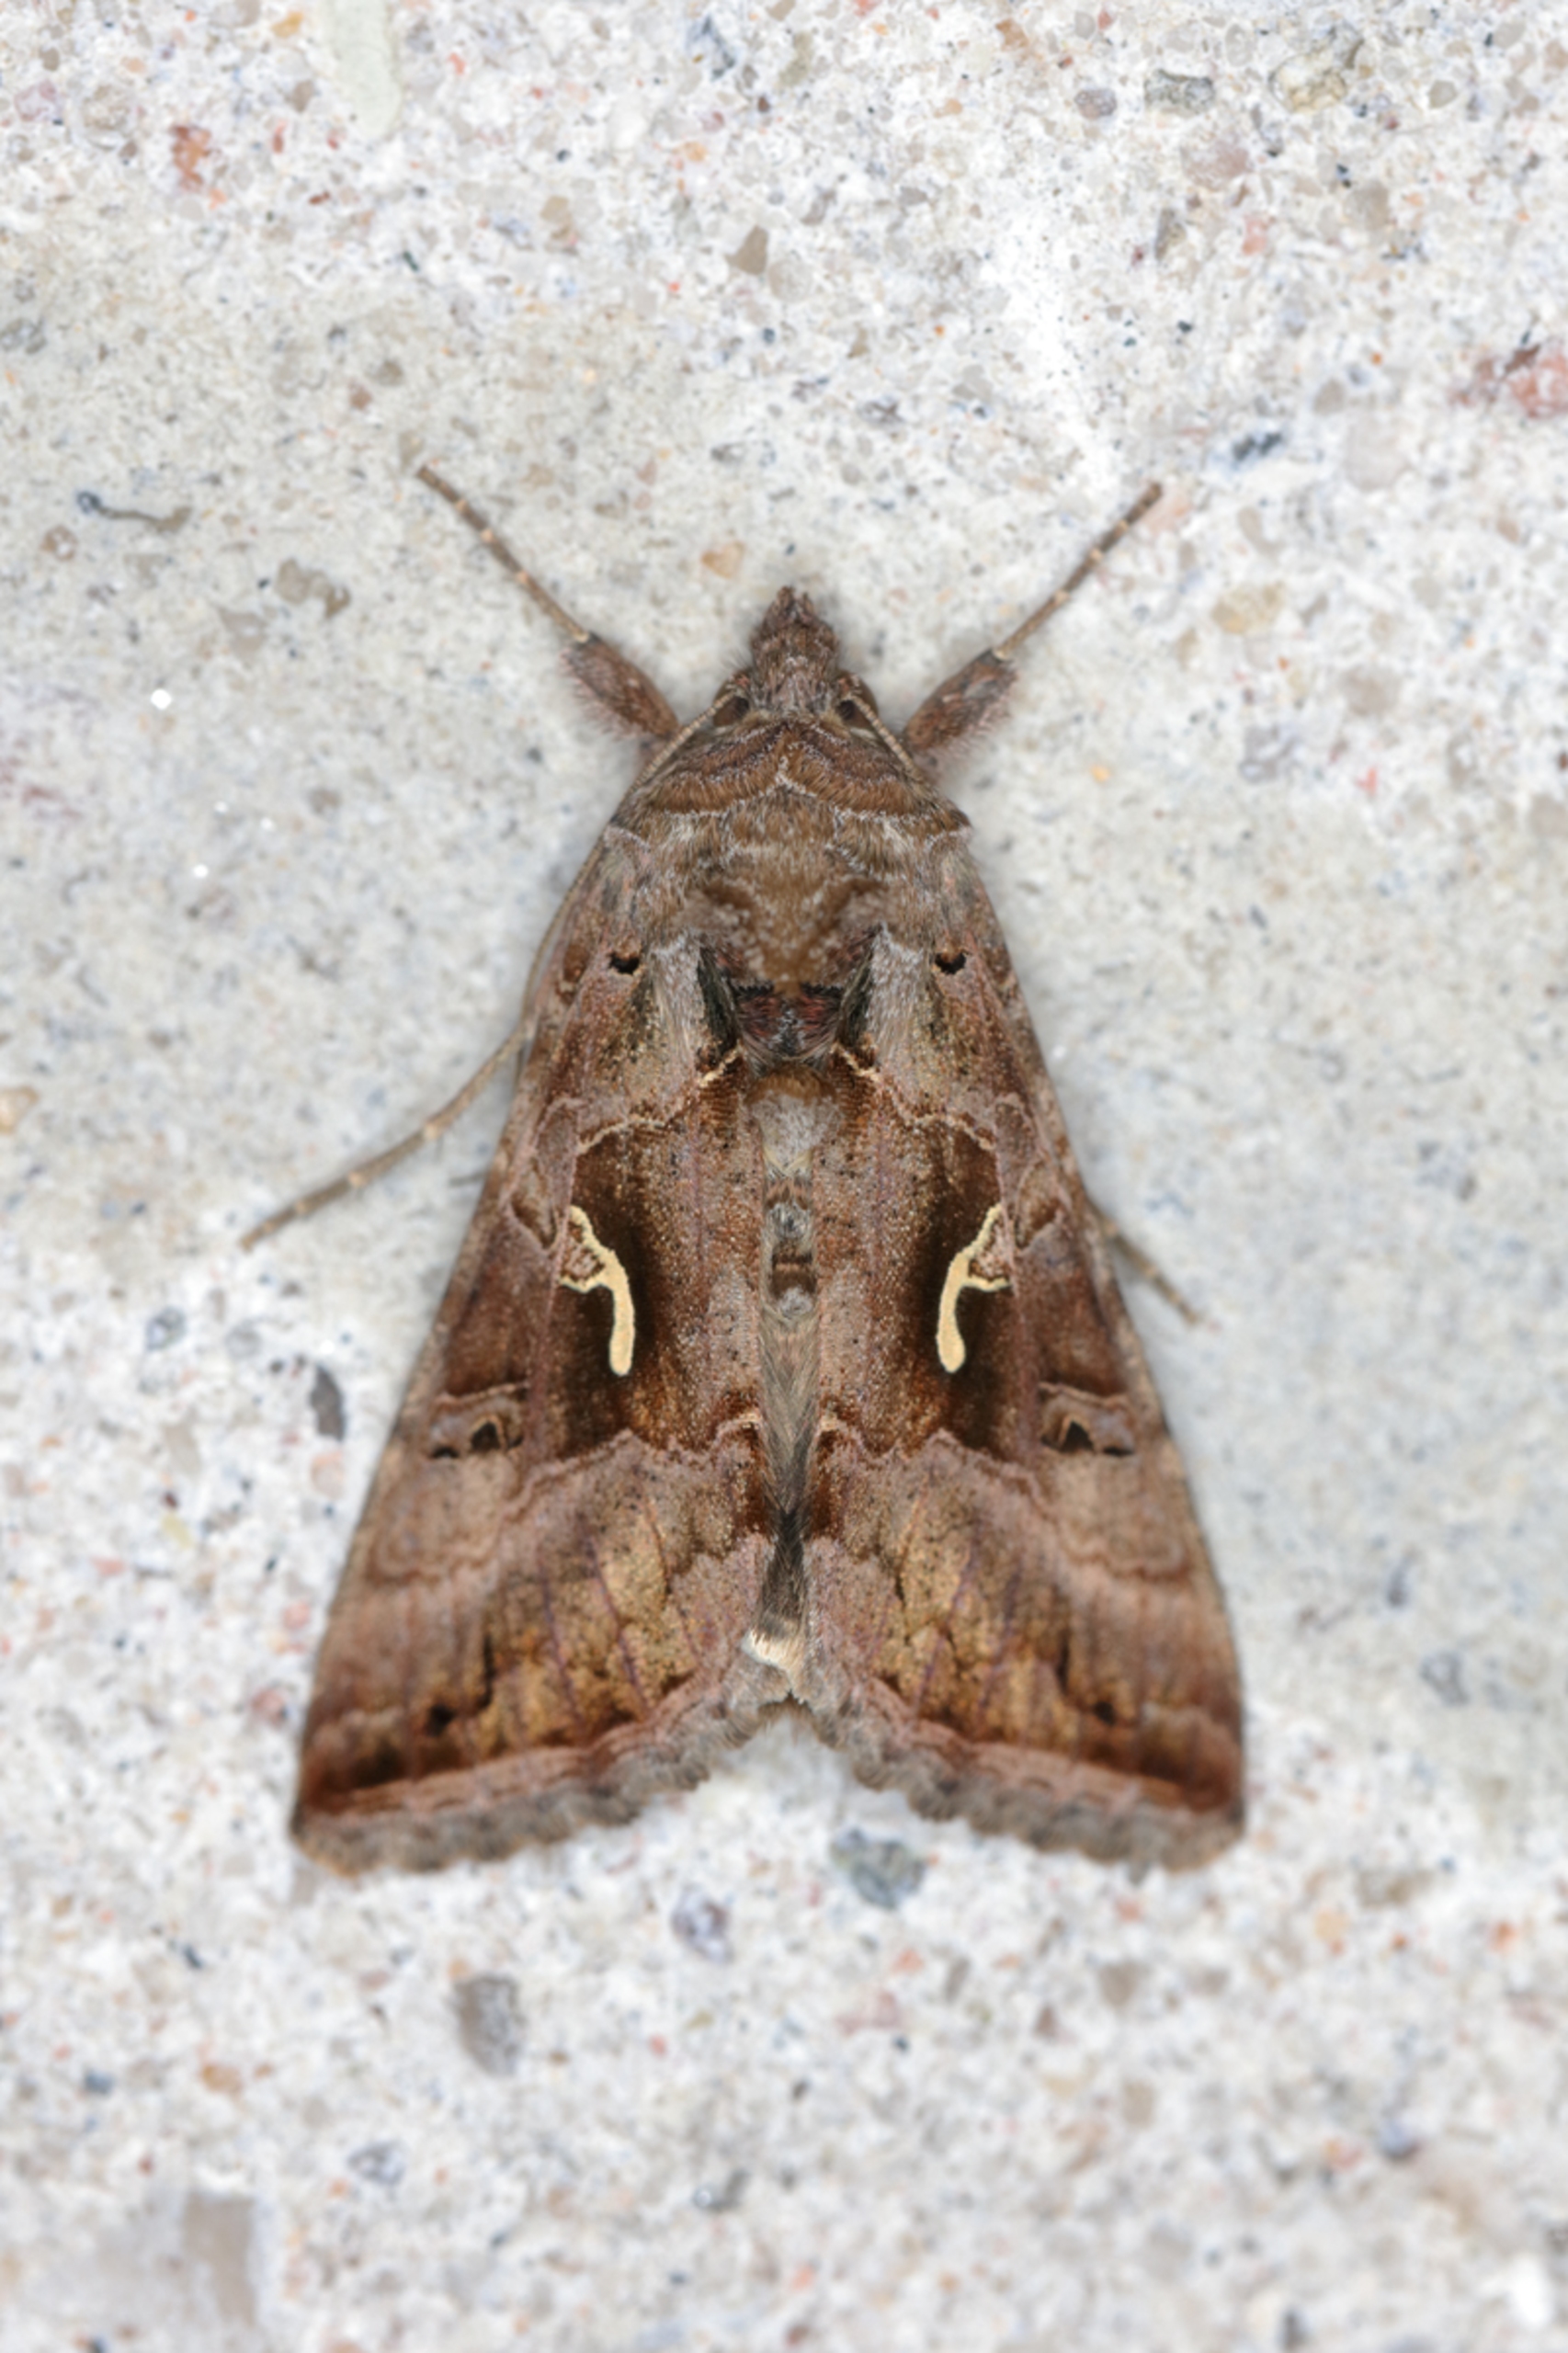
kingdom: Animalia
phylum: Arthropoda
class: Insecta
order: Lepidoptera
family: Noctuidae
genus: Autographa
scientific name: Autographa gamma
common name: Gammaugle
